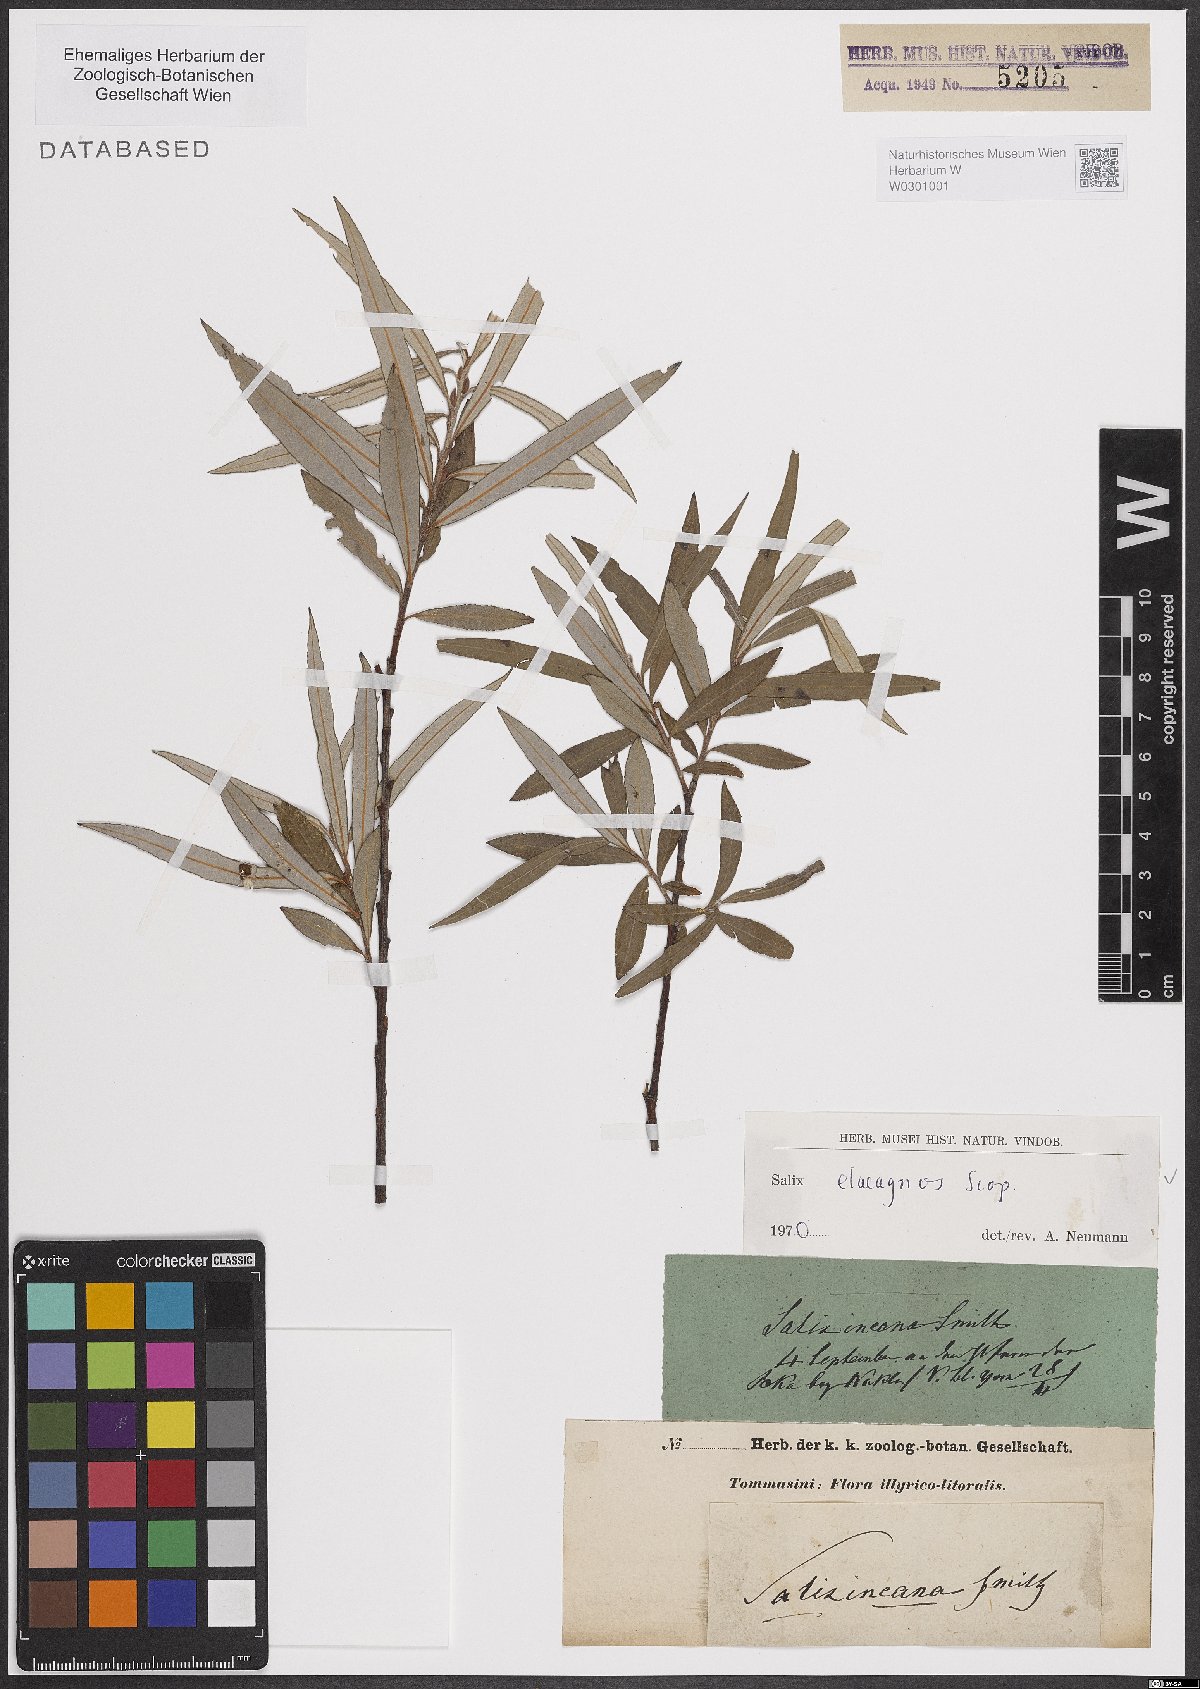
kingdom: Plantae
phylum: Tracheophyta
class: Magnoliopsida
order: Malpighiales
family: Salicaceae
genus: Salix
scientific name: Salix eleagnos
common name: Elaeagnus willow
